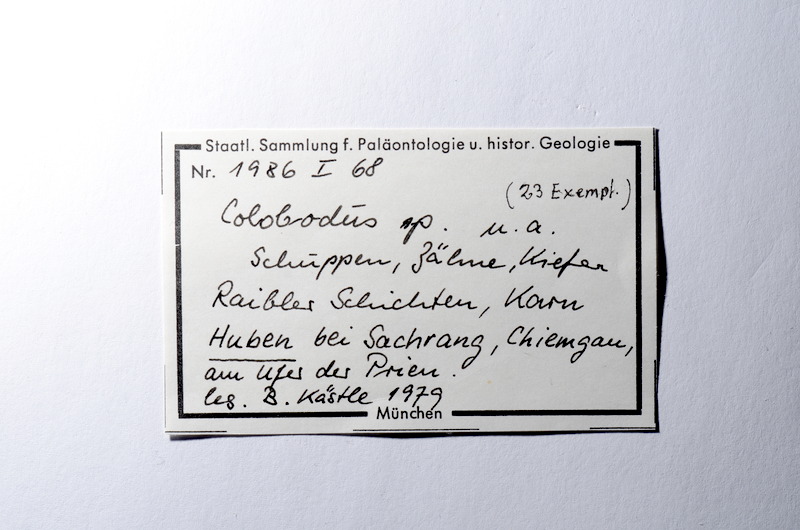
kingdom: Animalia
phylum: Chordata
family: Colobodontidae
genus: Colobodus
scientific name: Colobodus
